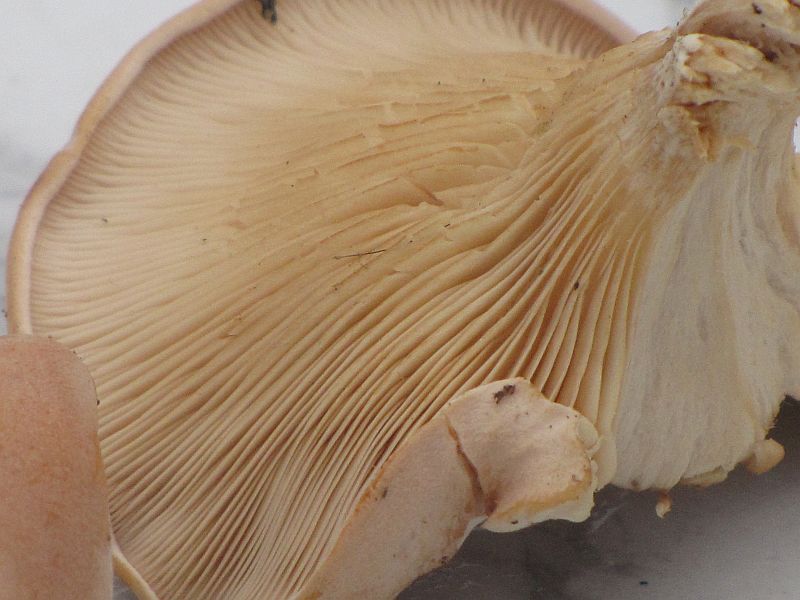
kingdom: Fungi
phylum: Basidiomycota
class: Agaricomycetes
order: Agaricales
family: Tricholomataceae
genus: Paralepista
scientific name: Paralepista gilva
